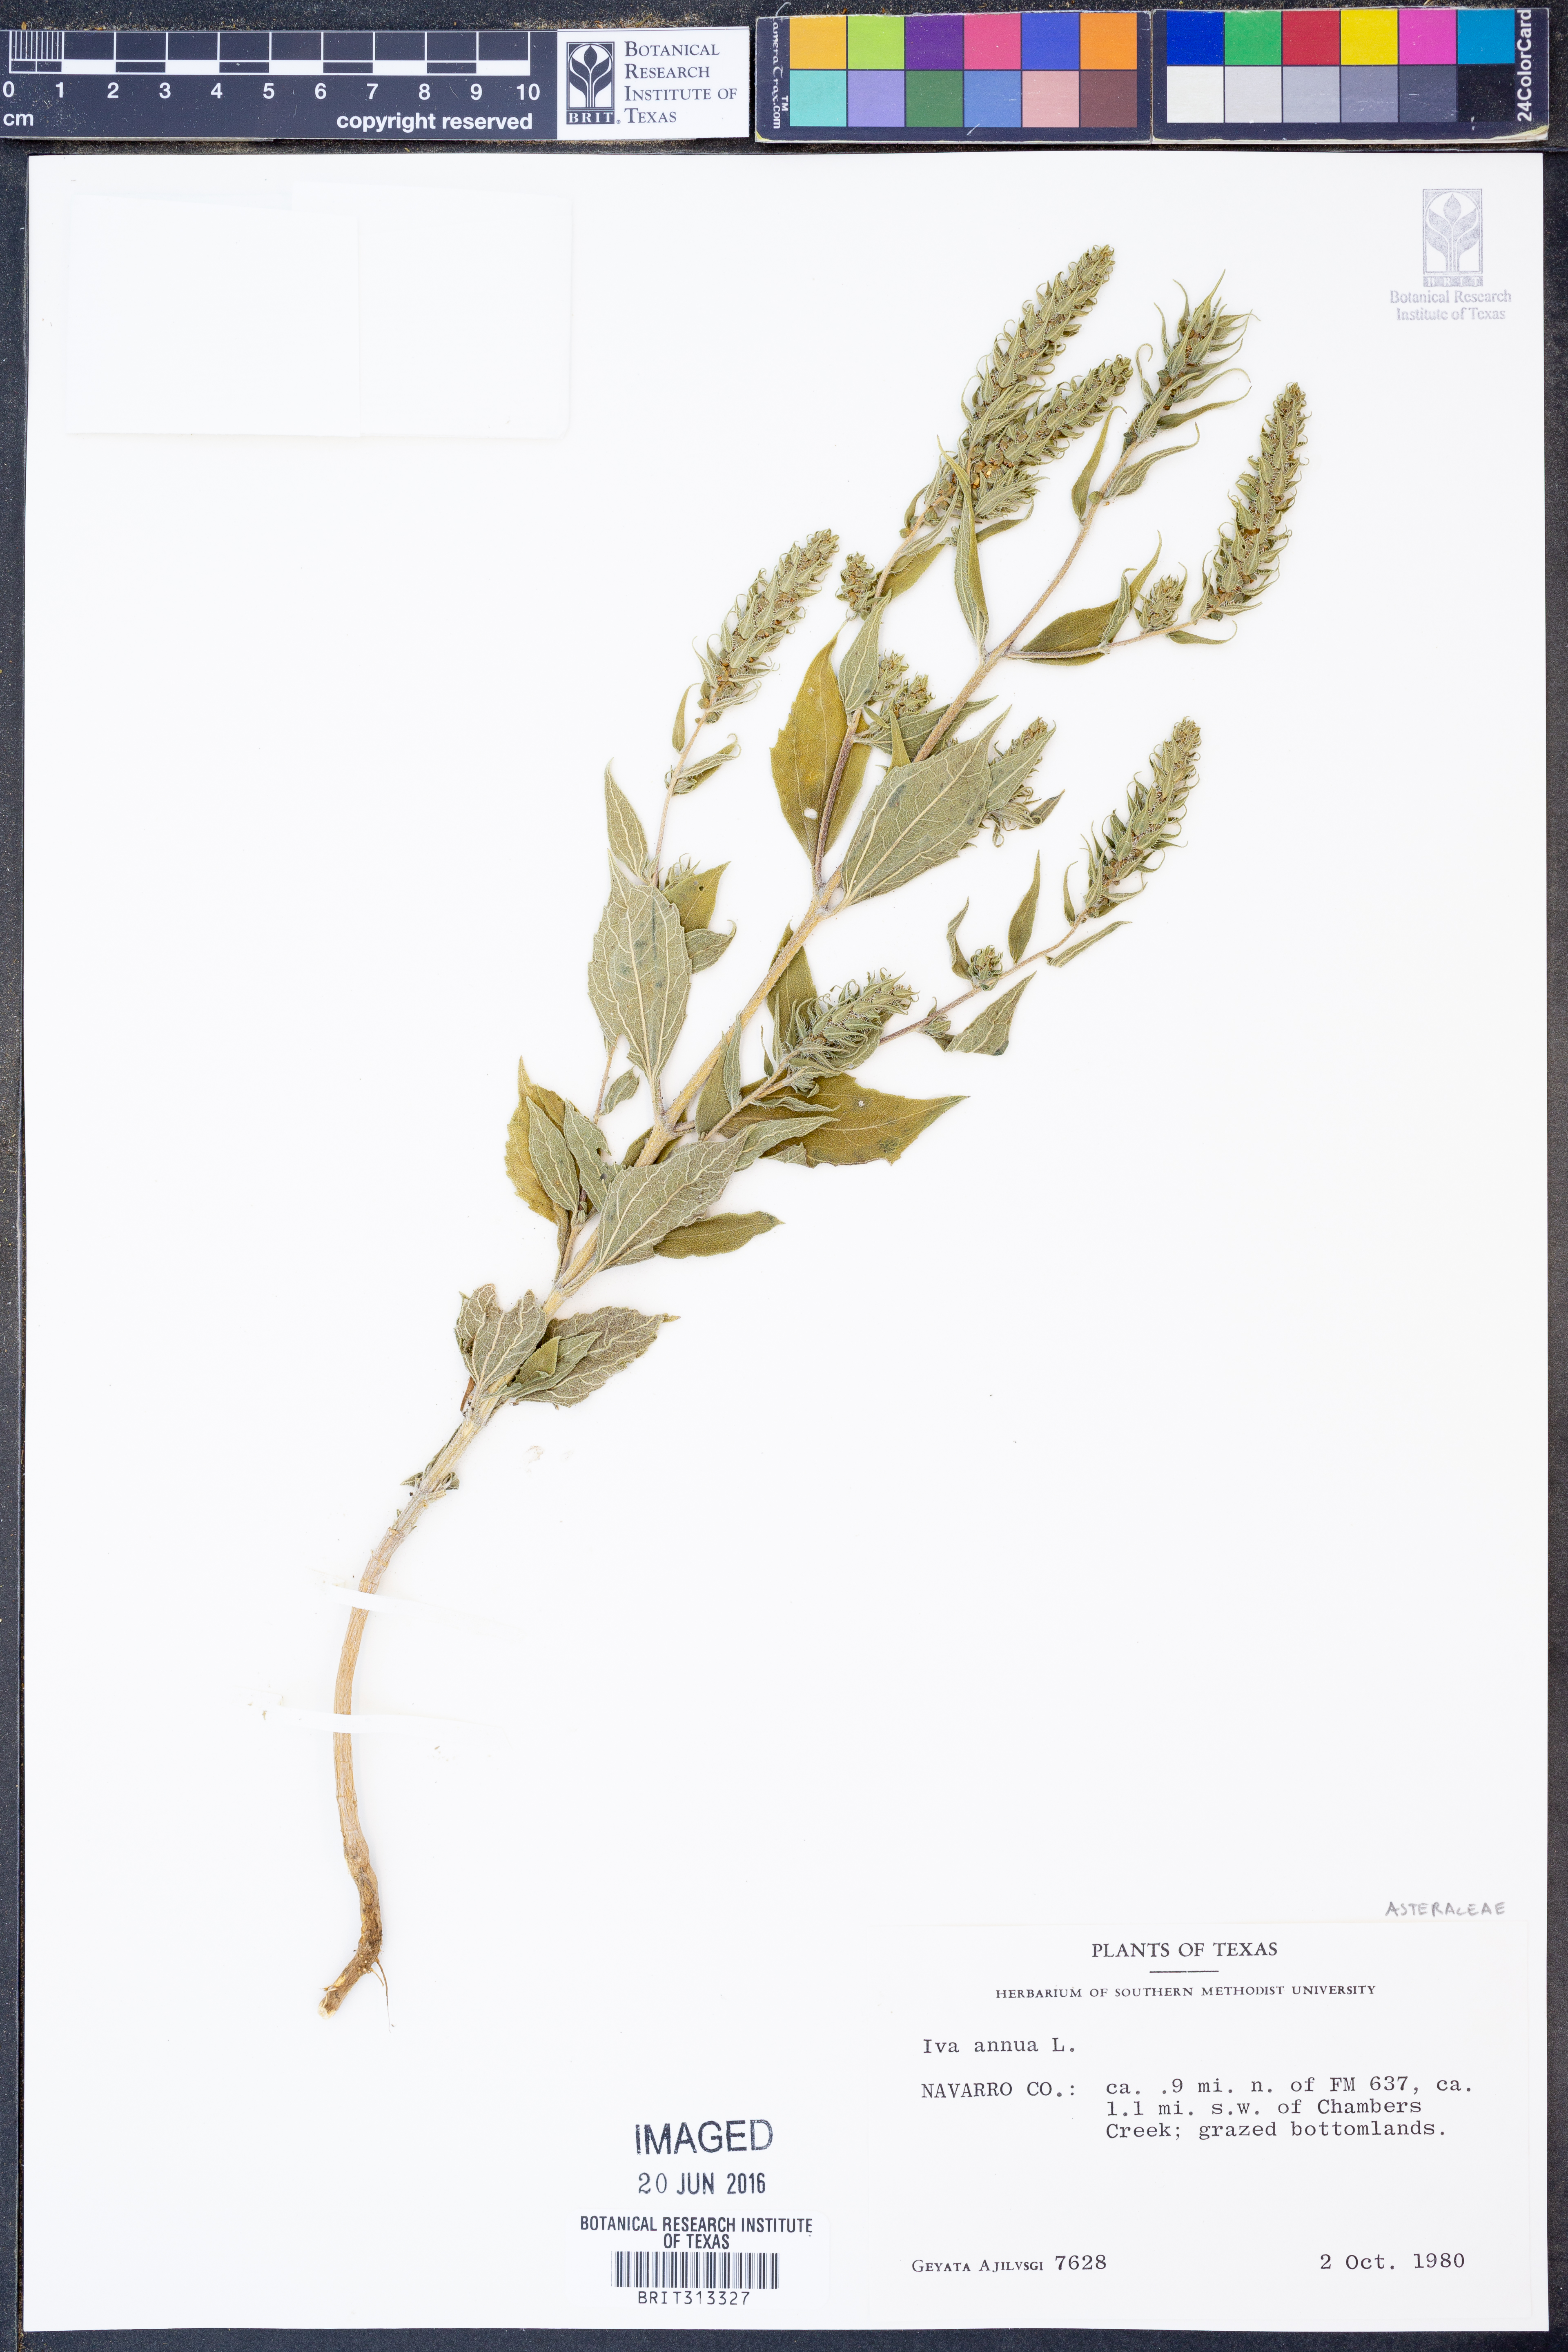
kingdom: Plantae
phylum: Tracheophyta
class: Magnoliopsida
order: Asterales
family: Asteraceae
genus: Iva
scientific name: Iva annua
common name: Marsh-elder
